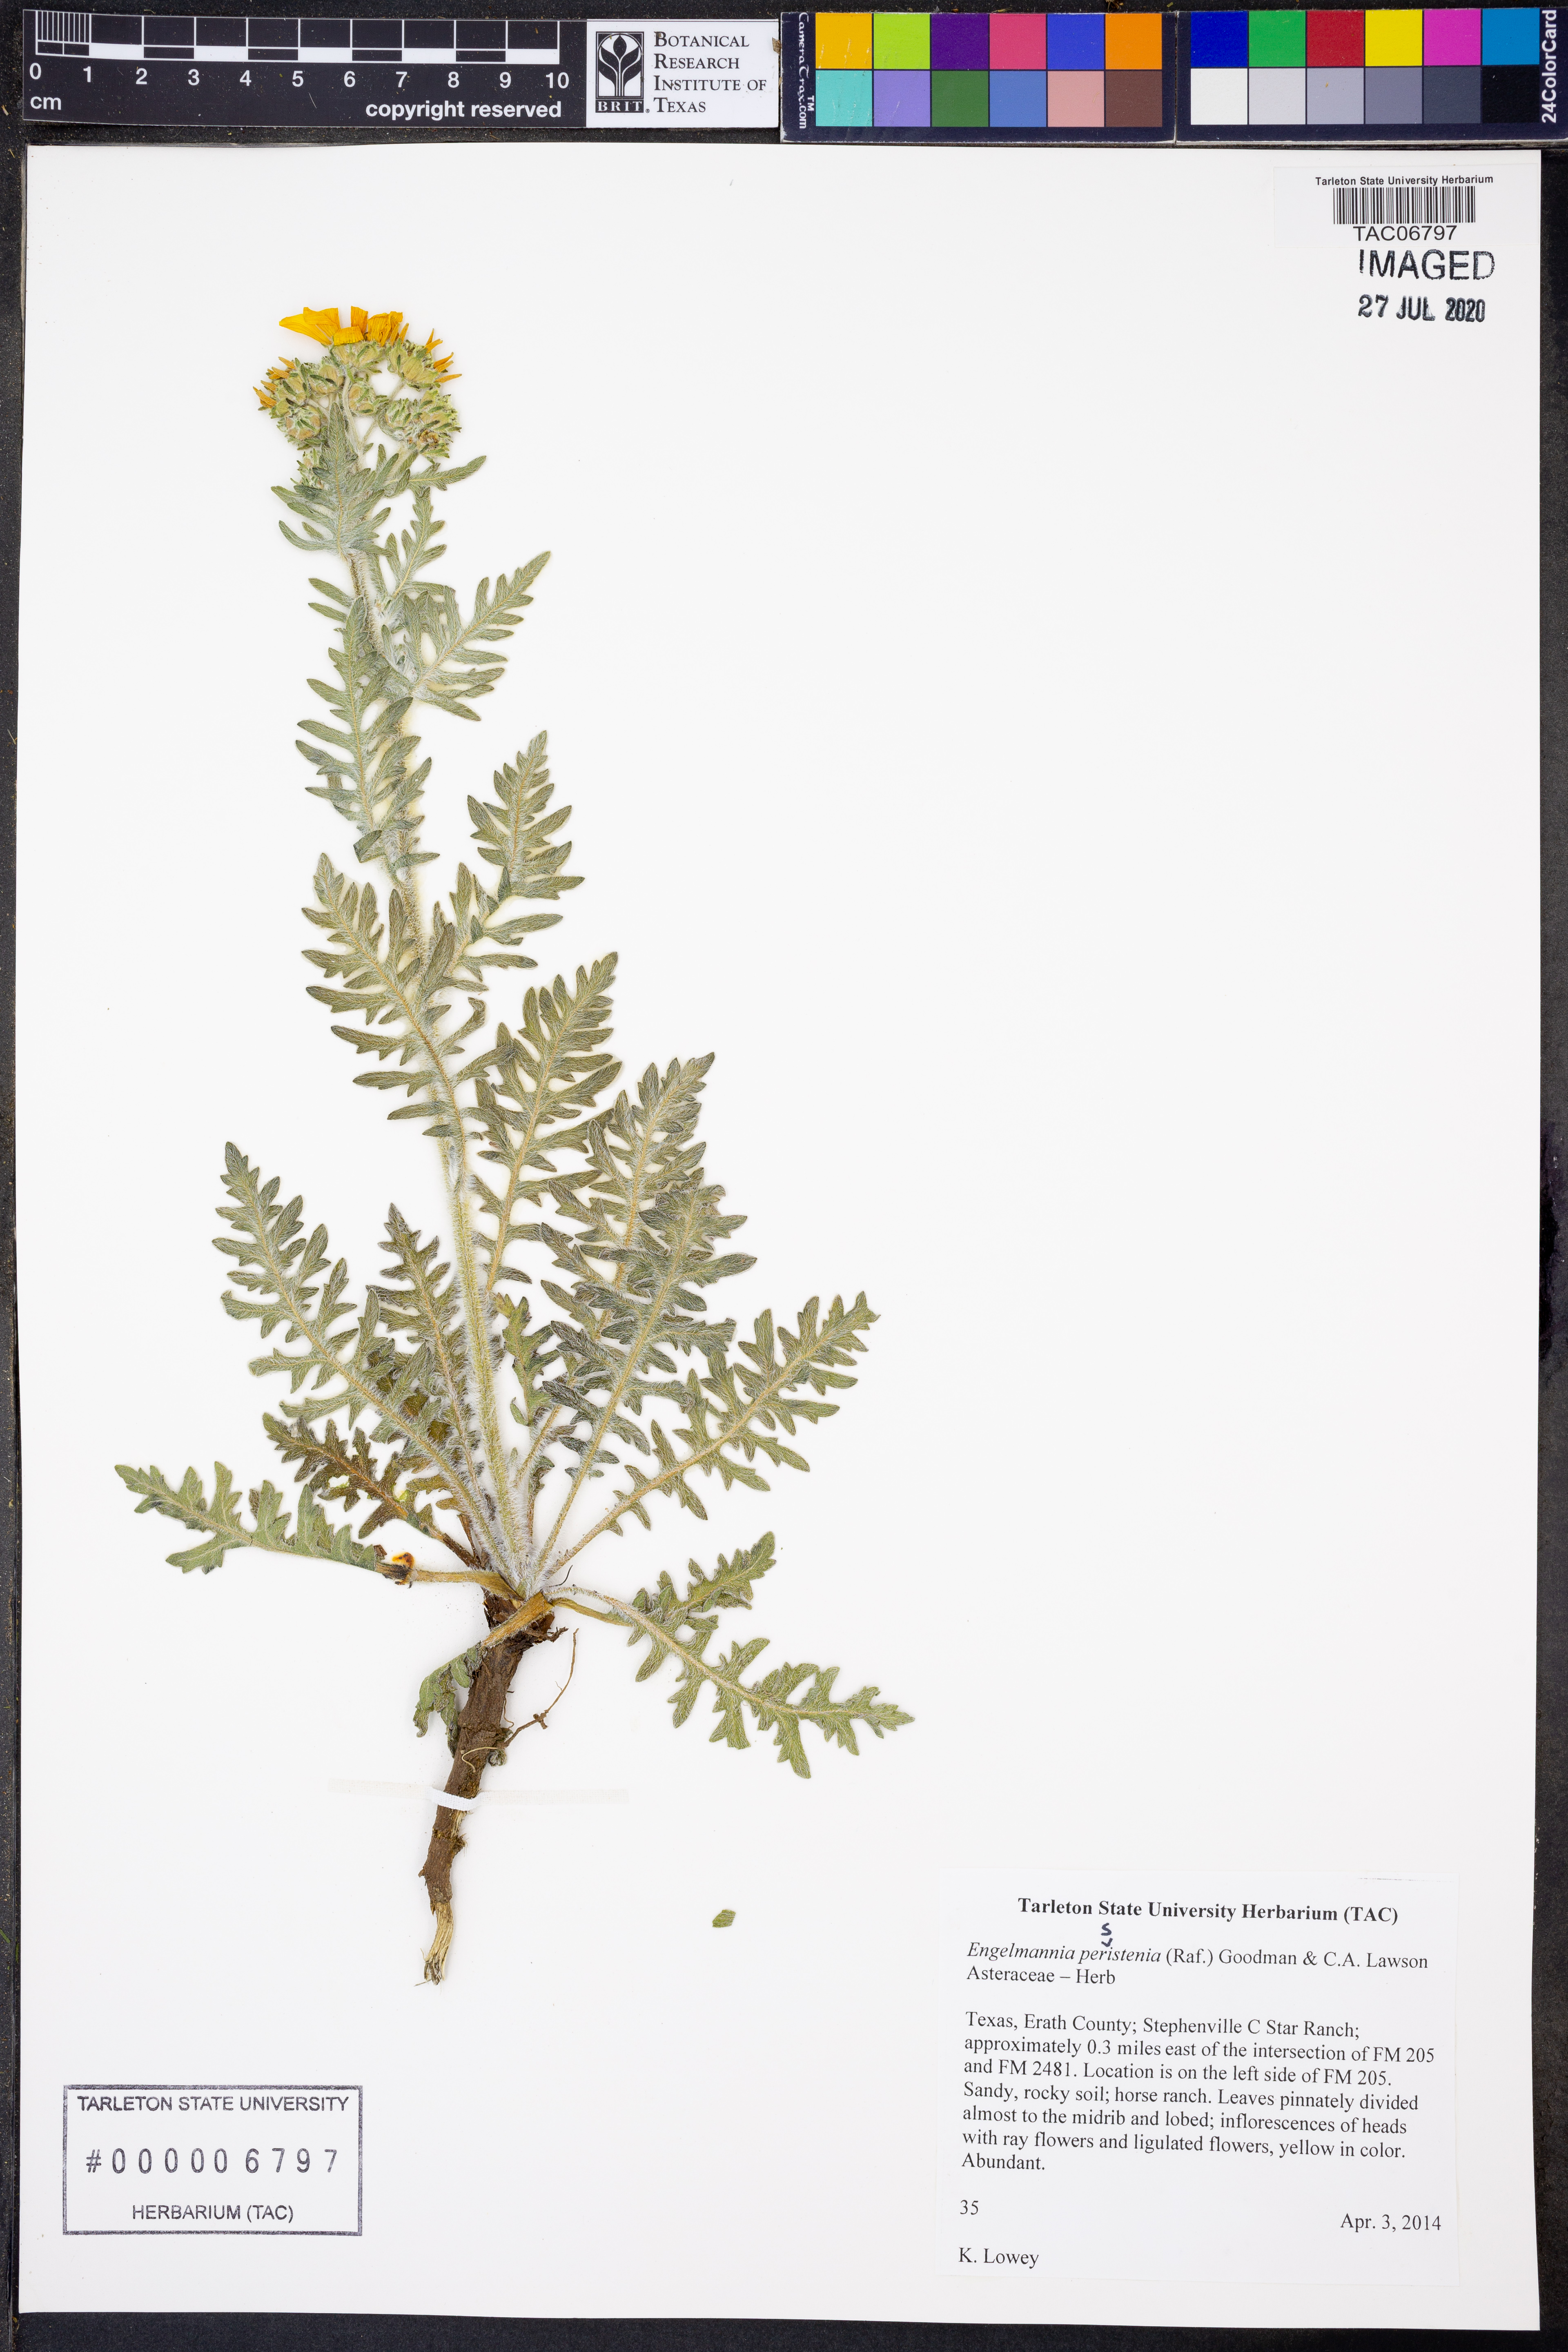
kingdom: Plantae
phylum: Tracheophyta
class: Magnoliopsida
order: Asterales
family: Asteraceae
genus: Engelmannia
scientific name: Engelmannia peristenia
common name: Engelmann's daisy
